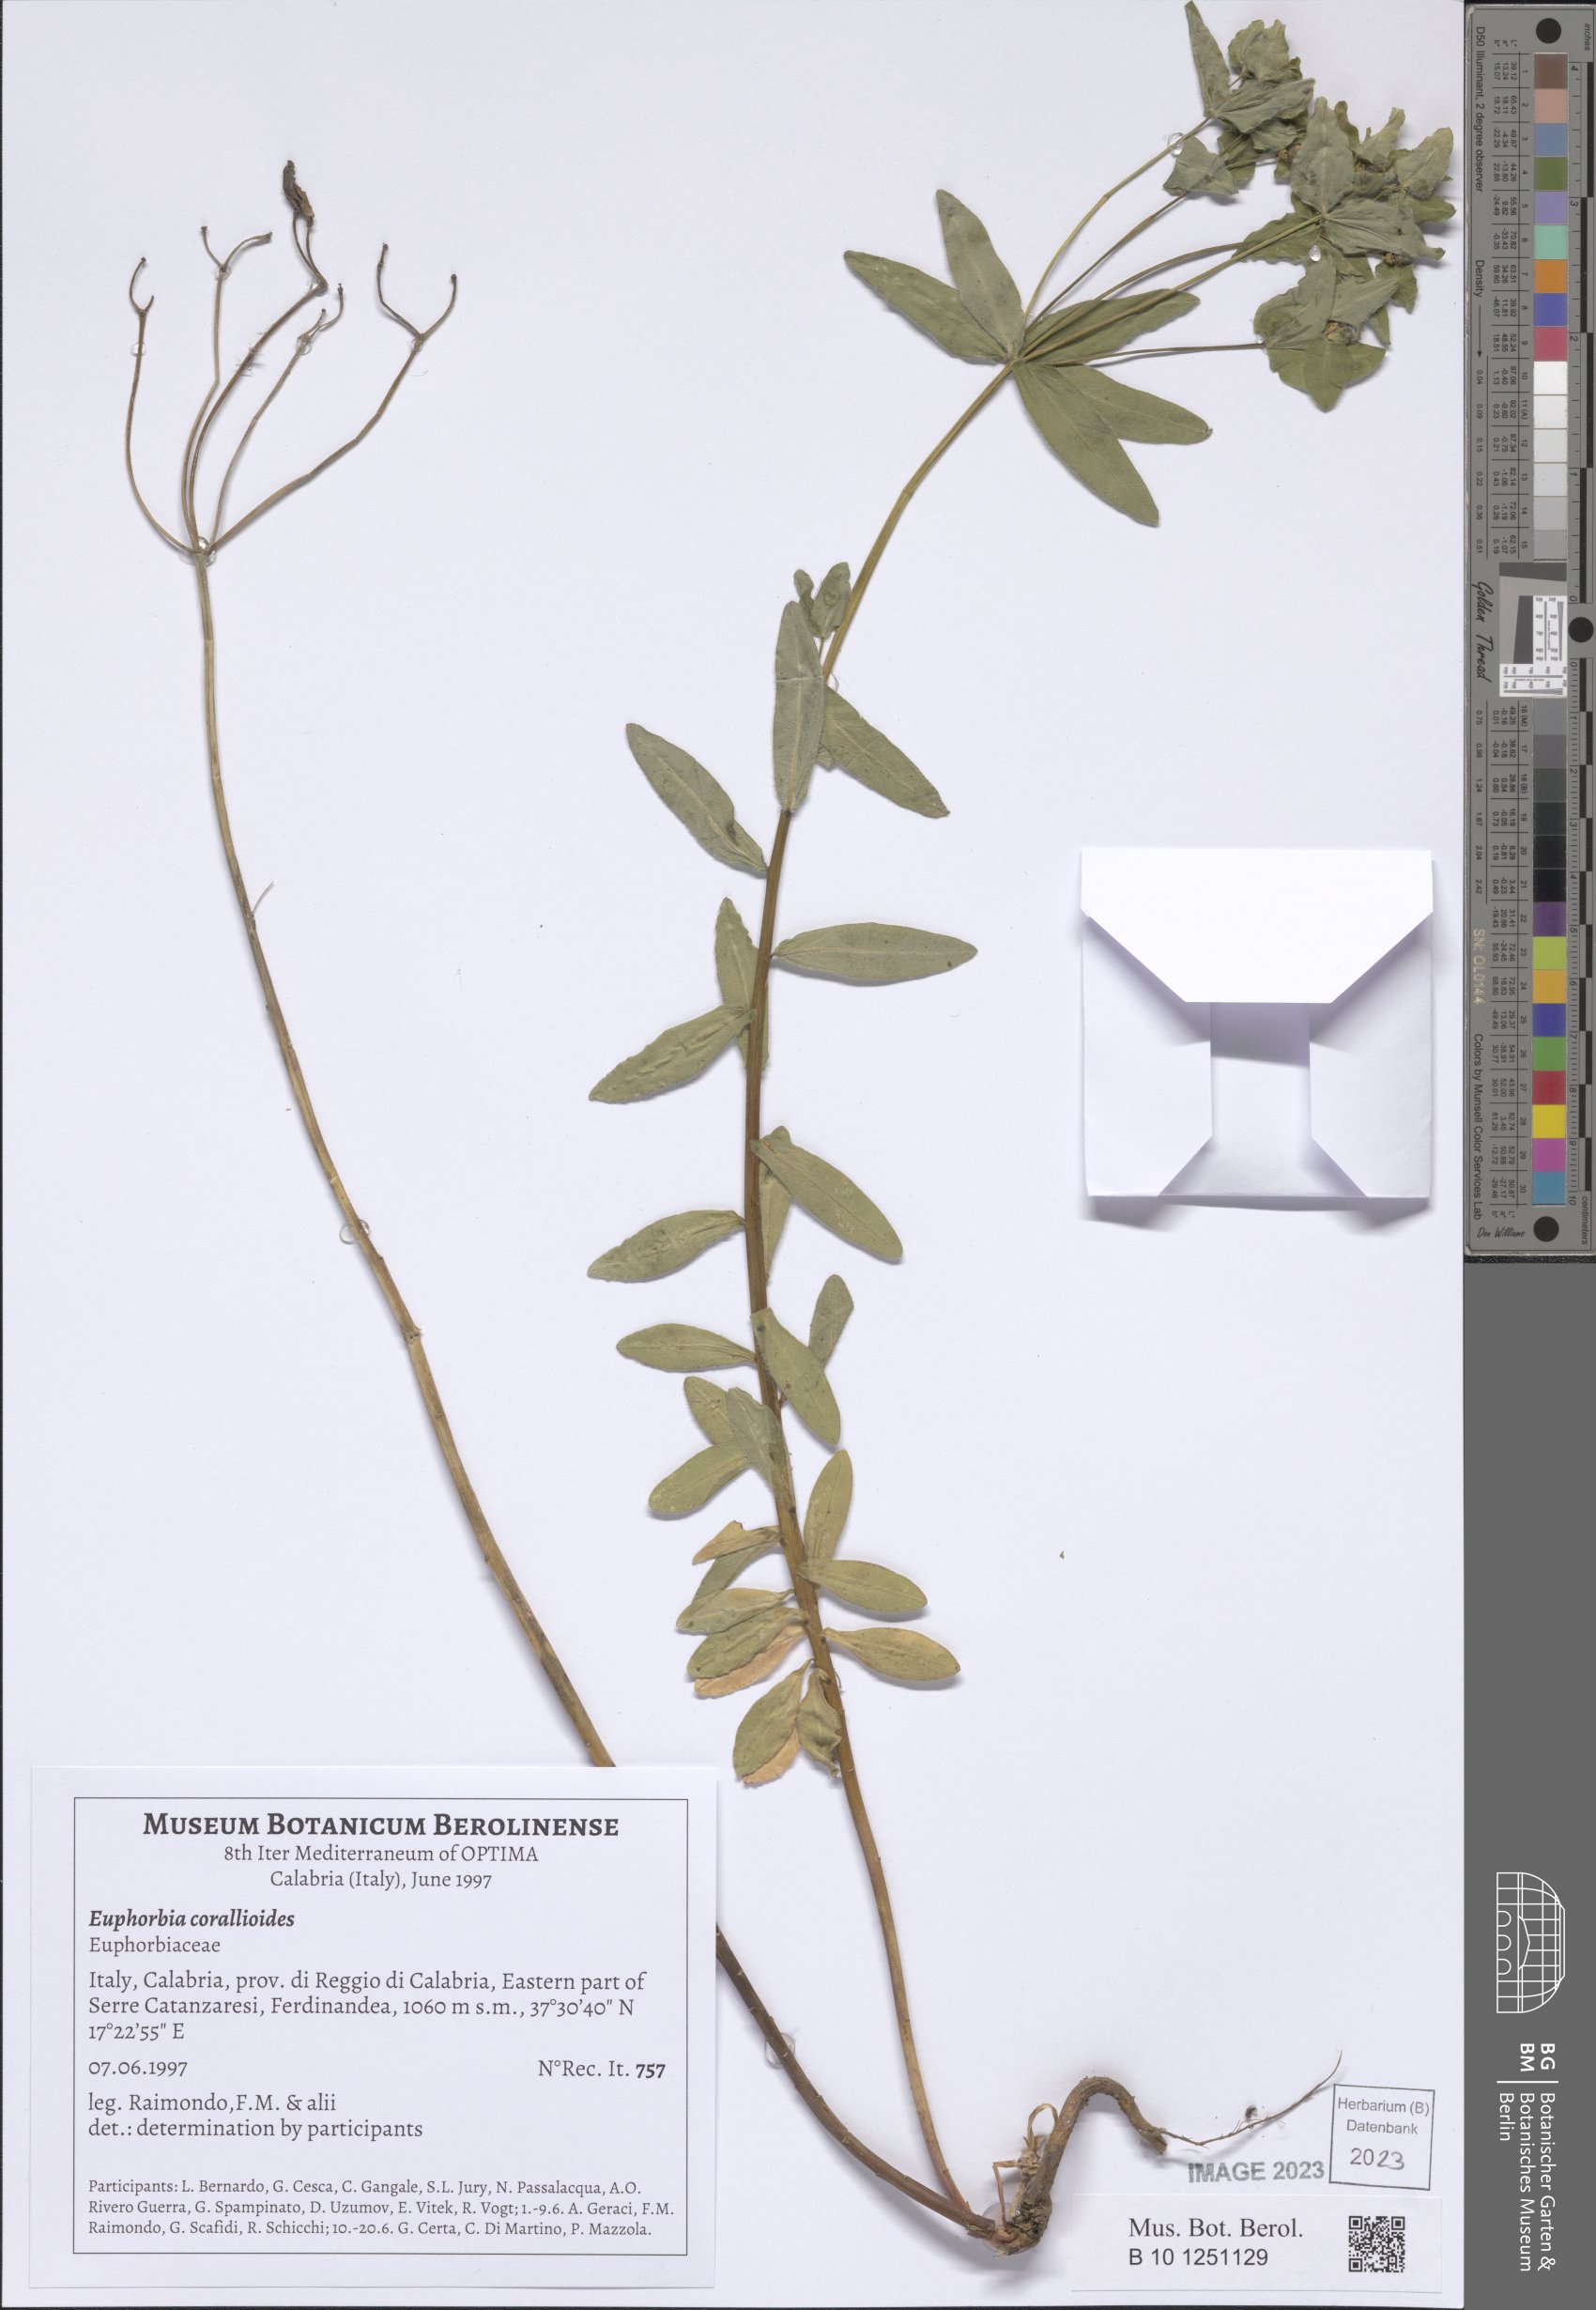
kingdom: Plantae
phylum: Tracheophyta
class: Magnoliopsida
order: Malpighiales
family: Euphorbiaceae
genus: Euphorbia
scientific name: Euphorbia corallioides
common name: Coral spurge
